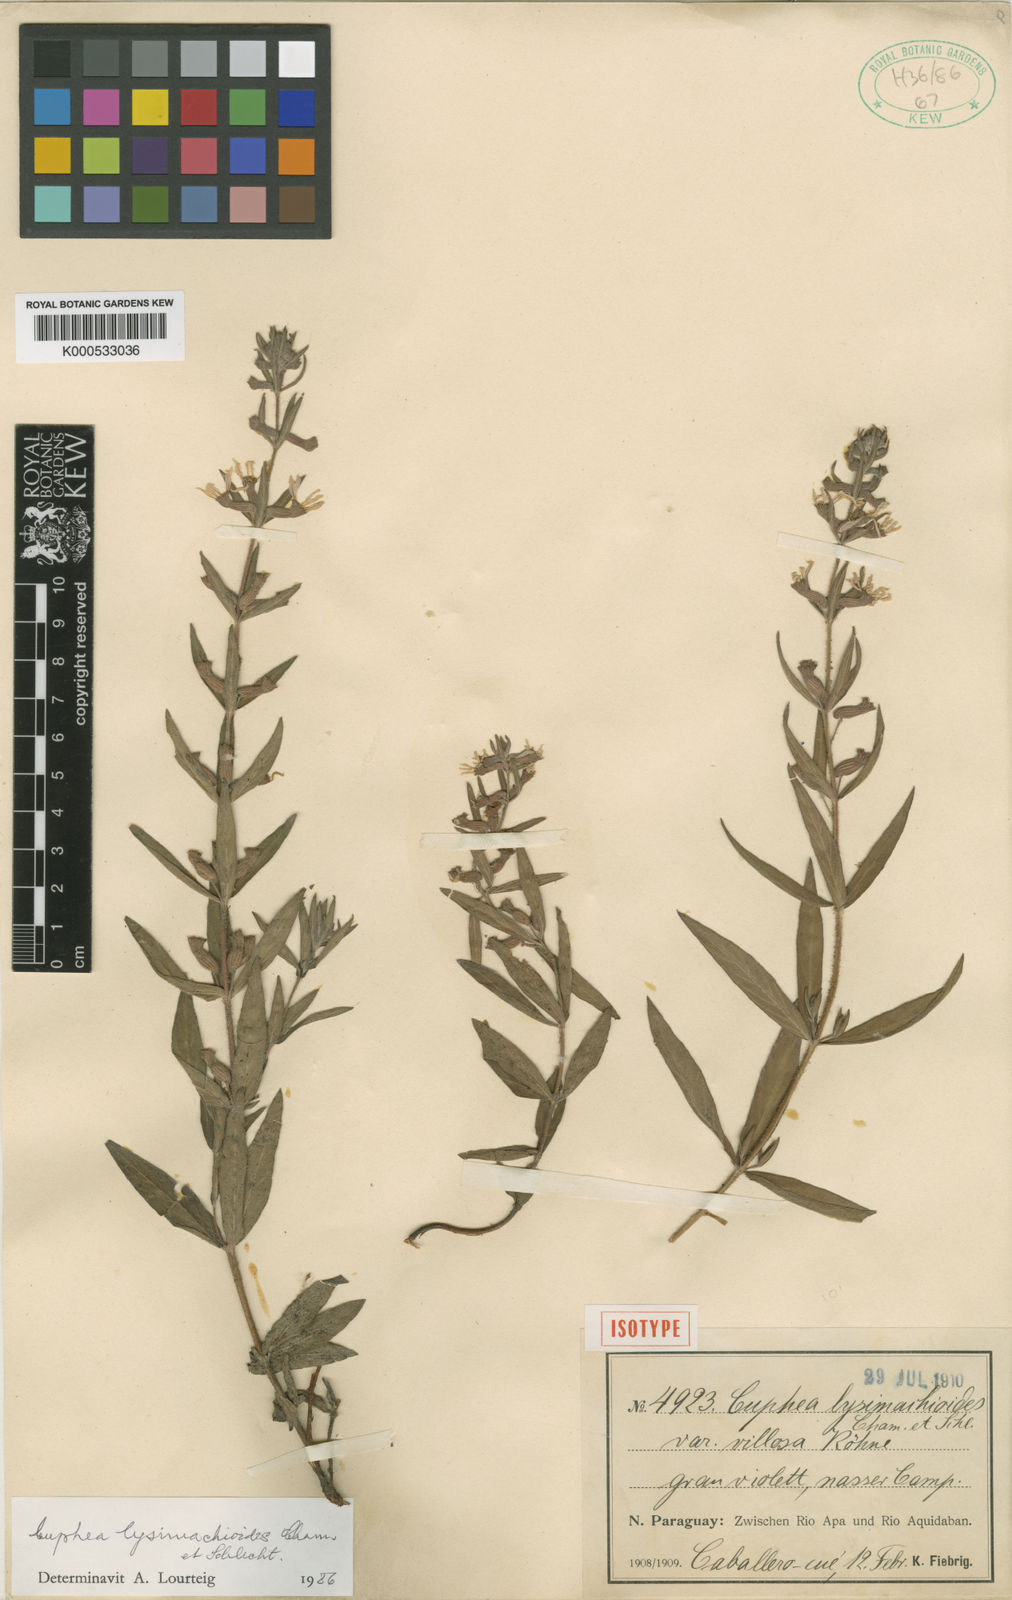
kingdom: Plantae
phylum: Tracheophyta
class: Magnoliopsida
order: Myrtales
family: Lythraceae
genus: Cuphea
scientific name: Cuphea lysimachioides
